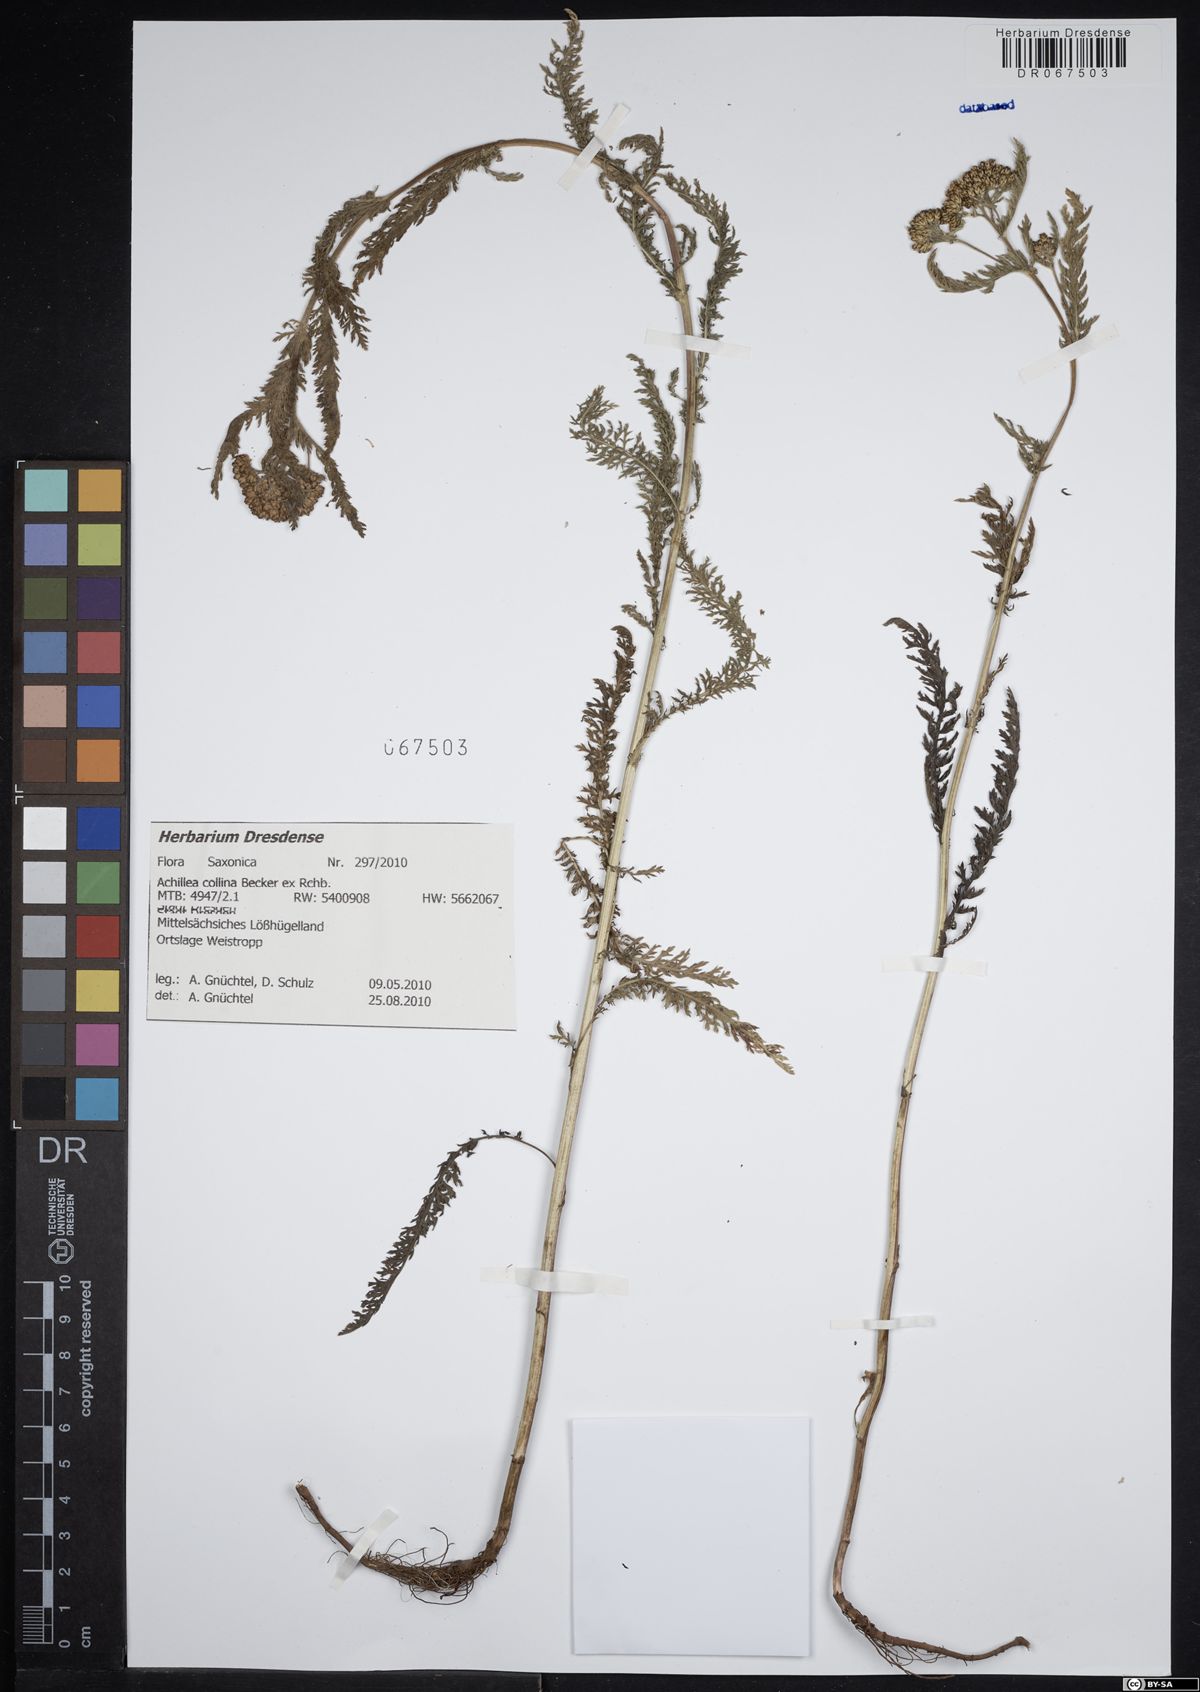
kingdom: Plantae
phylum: Tracheophyta
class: Magnoliopsida
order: Asterales
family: Asteraceae
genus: Achillea
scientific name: Achillea collina
